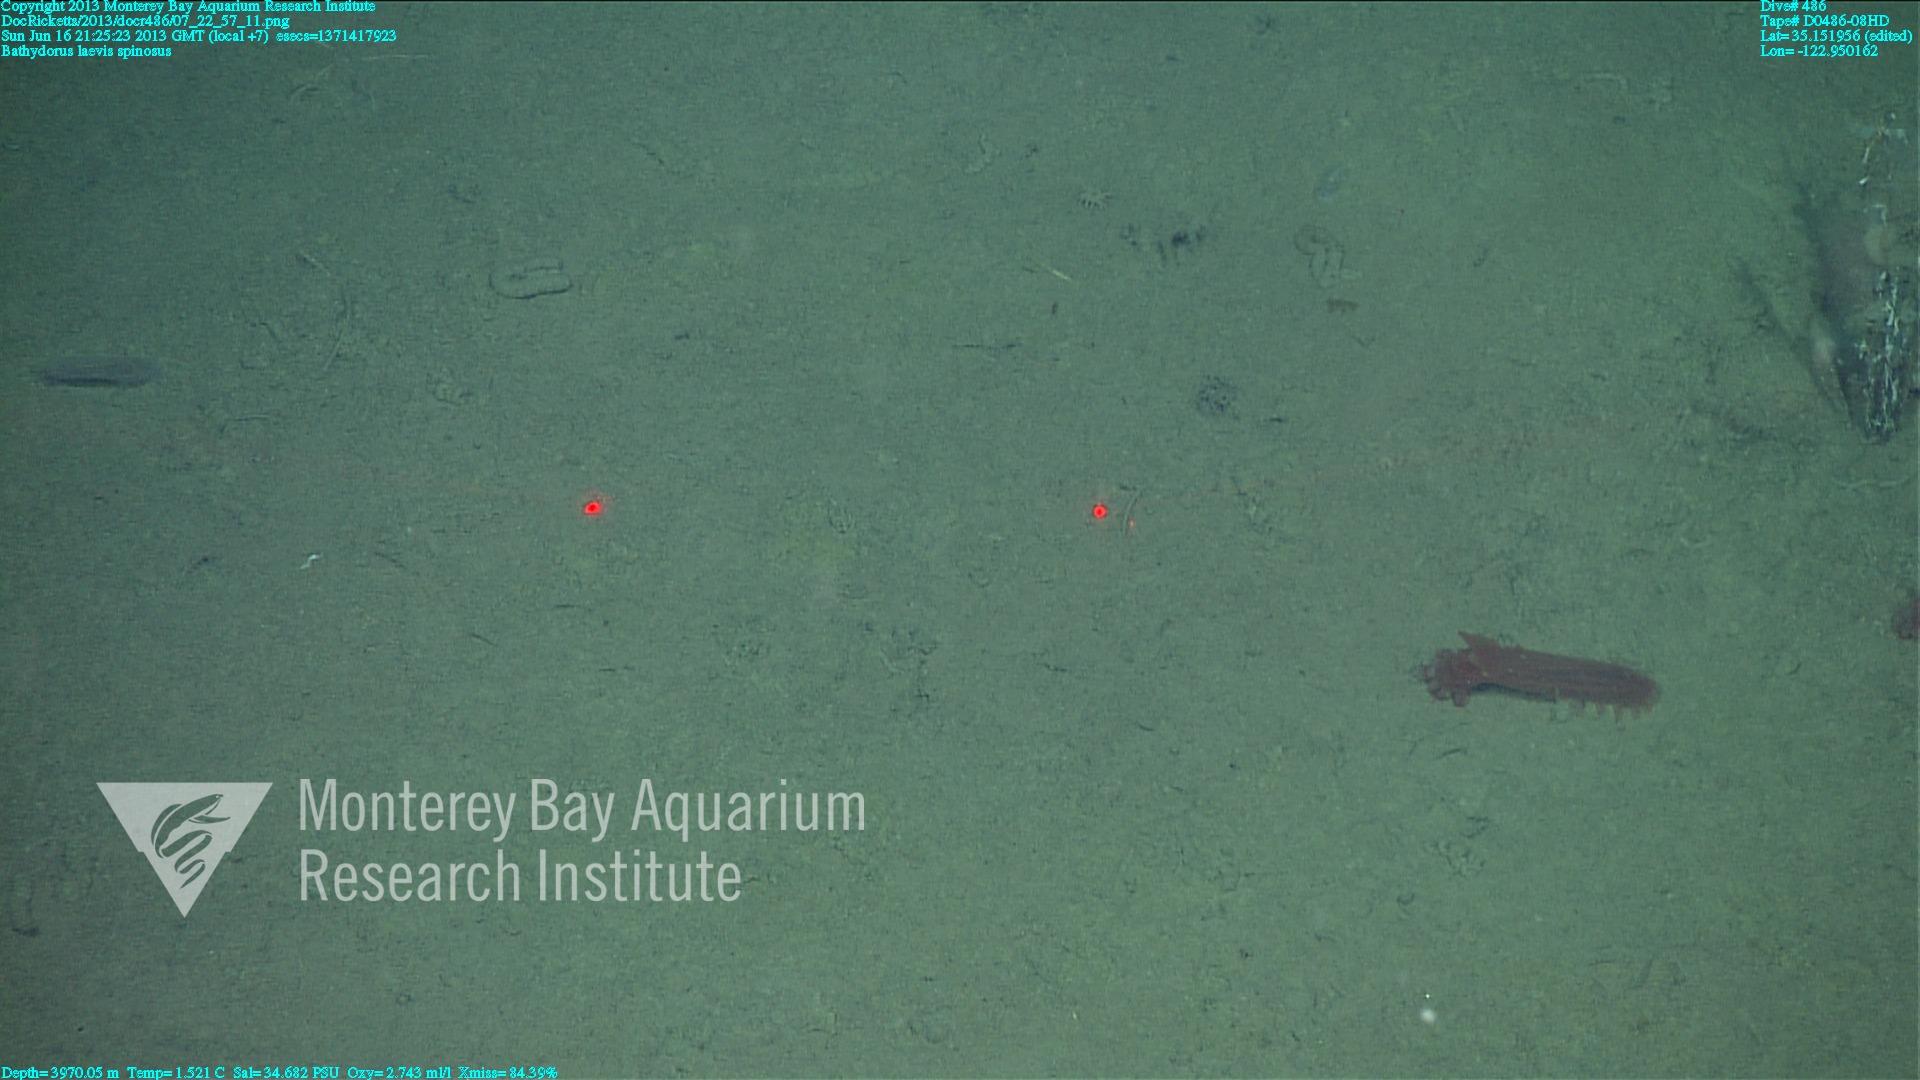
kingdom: Animalia
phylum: Porifera
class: Hexactinellida
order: Lyssacinosida
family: Rossellidae
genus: Bathydorus
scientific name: Bathydorus spinosus
